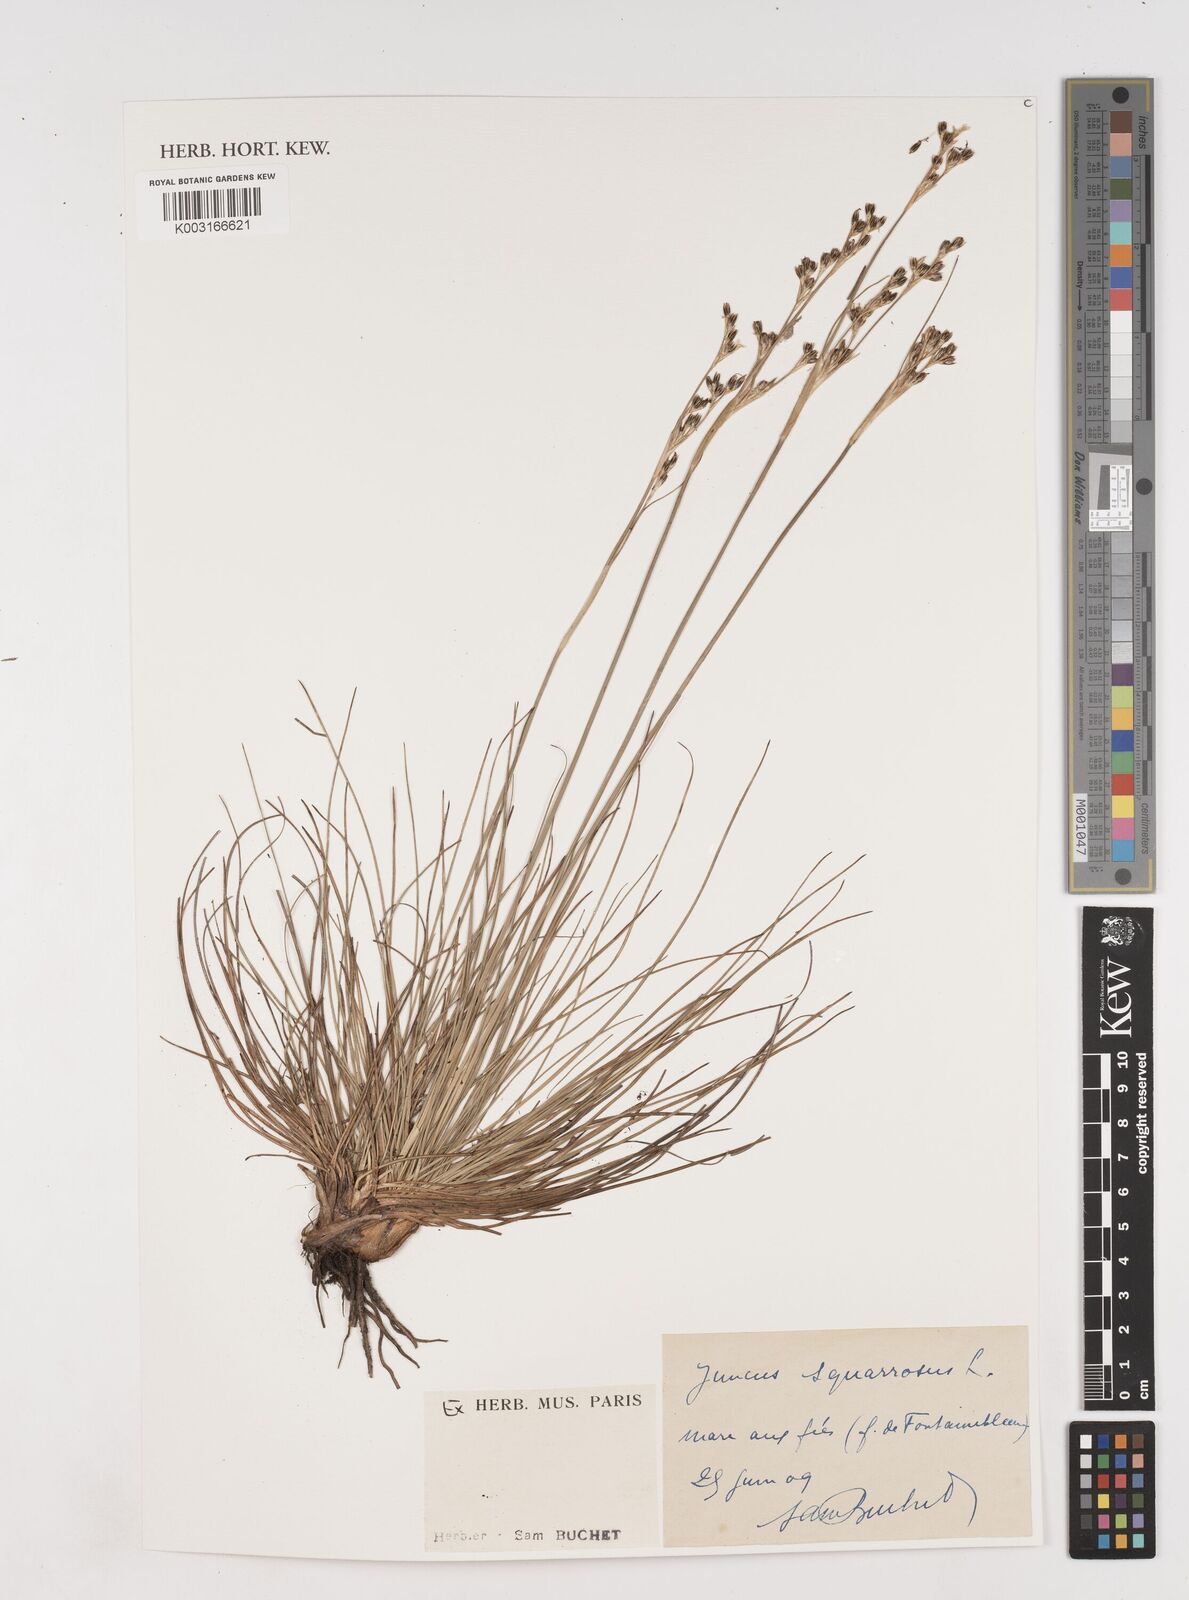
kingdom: Plantae
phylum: Tracheophyta
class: Liliopsida
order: Poales
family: Juncaceae
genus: Juncus
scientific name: Juncus squarrosus
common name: Heath rush
